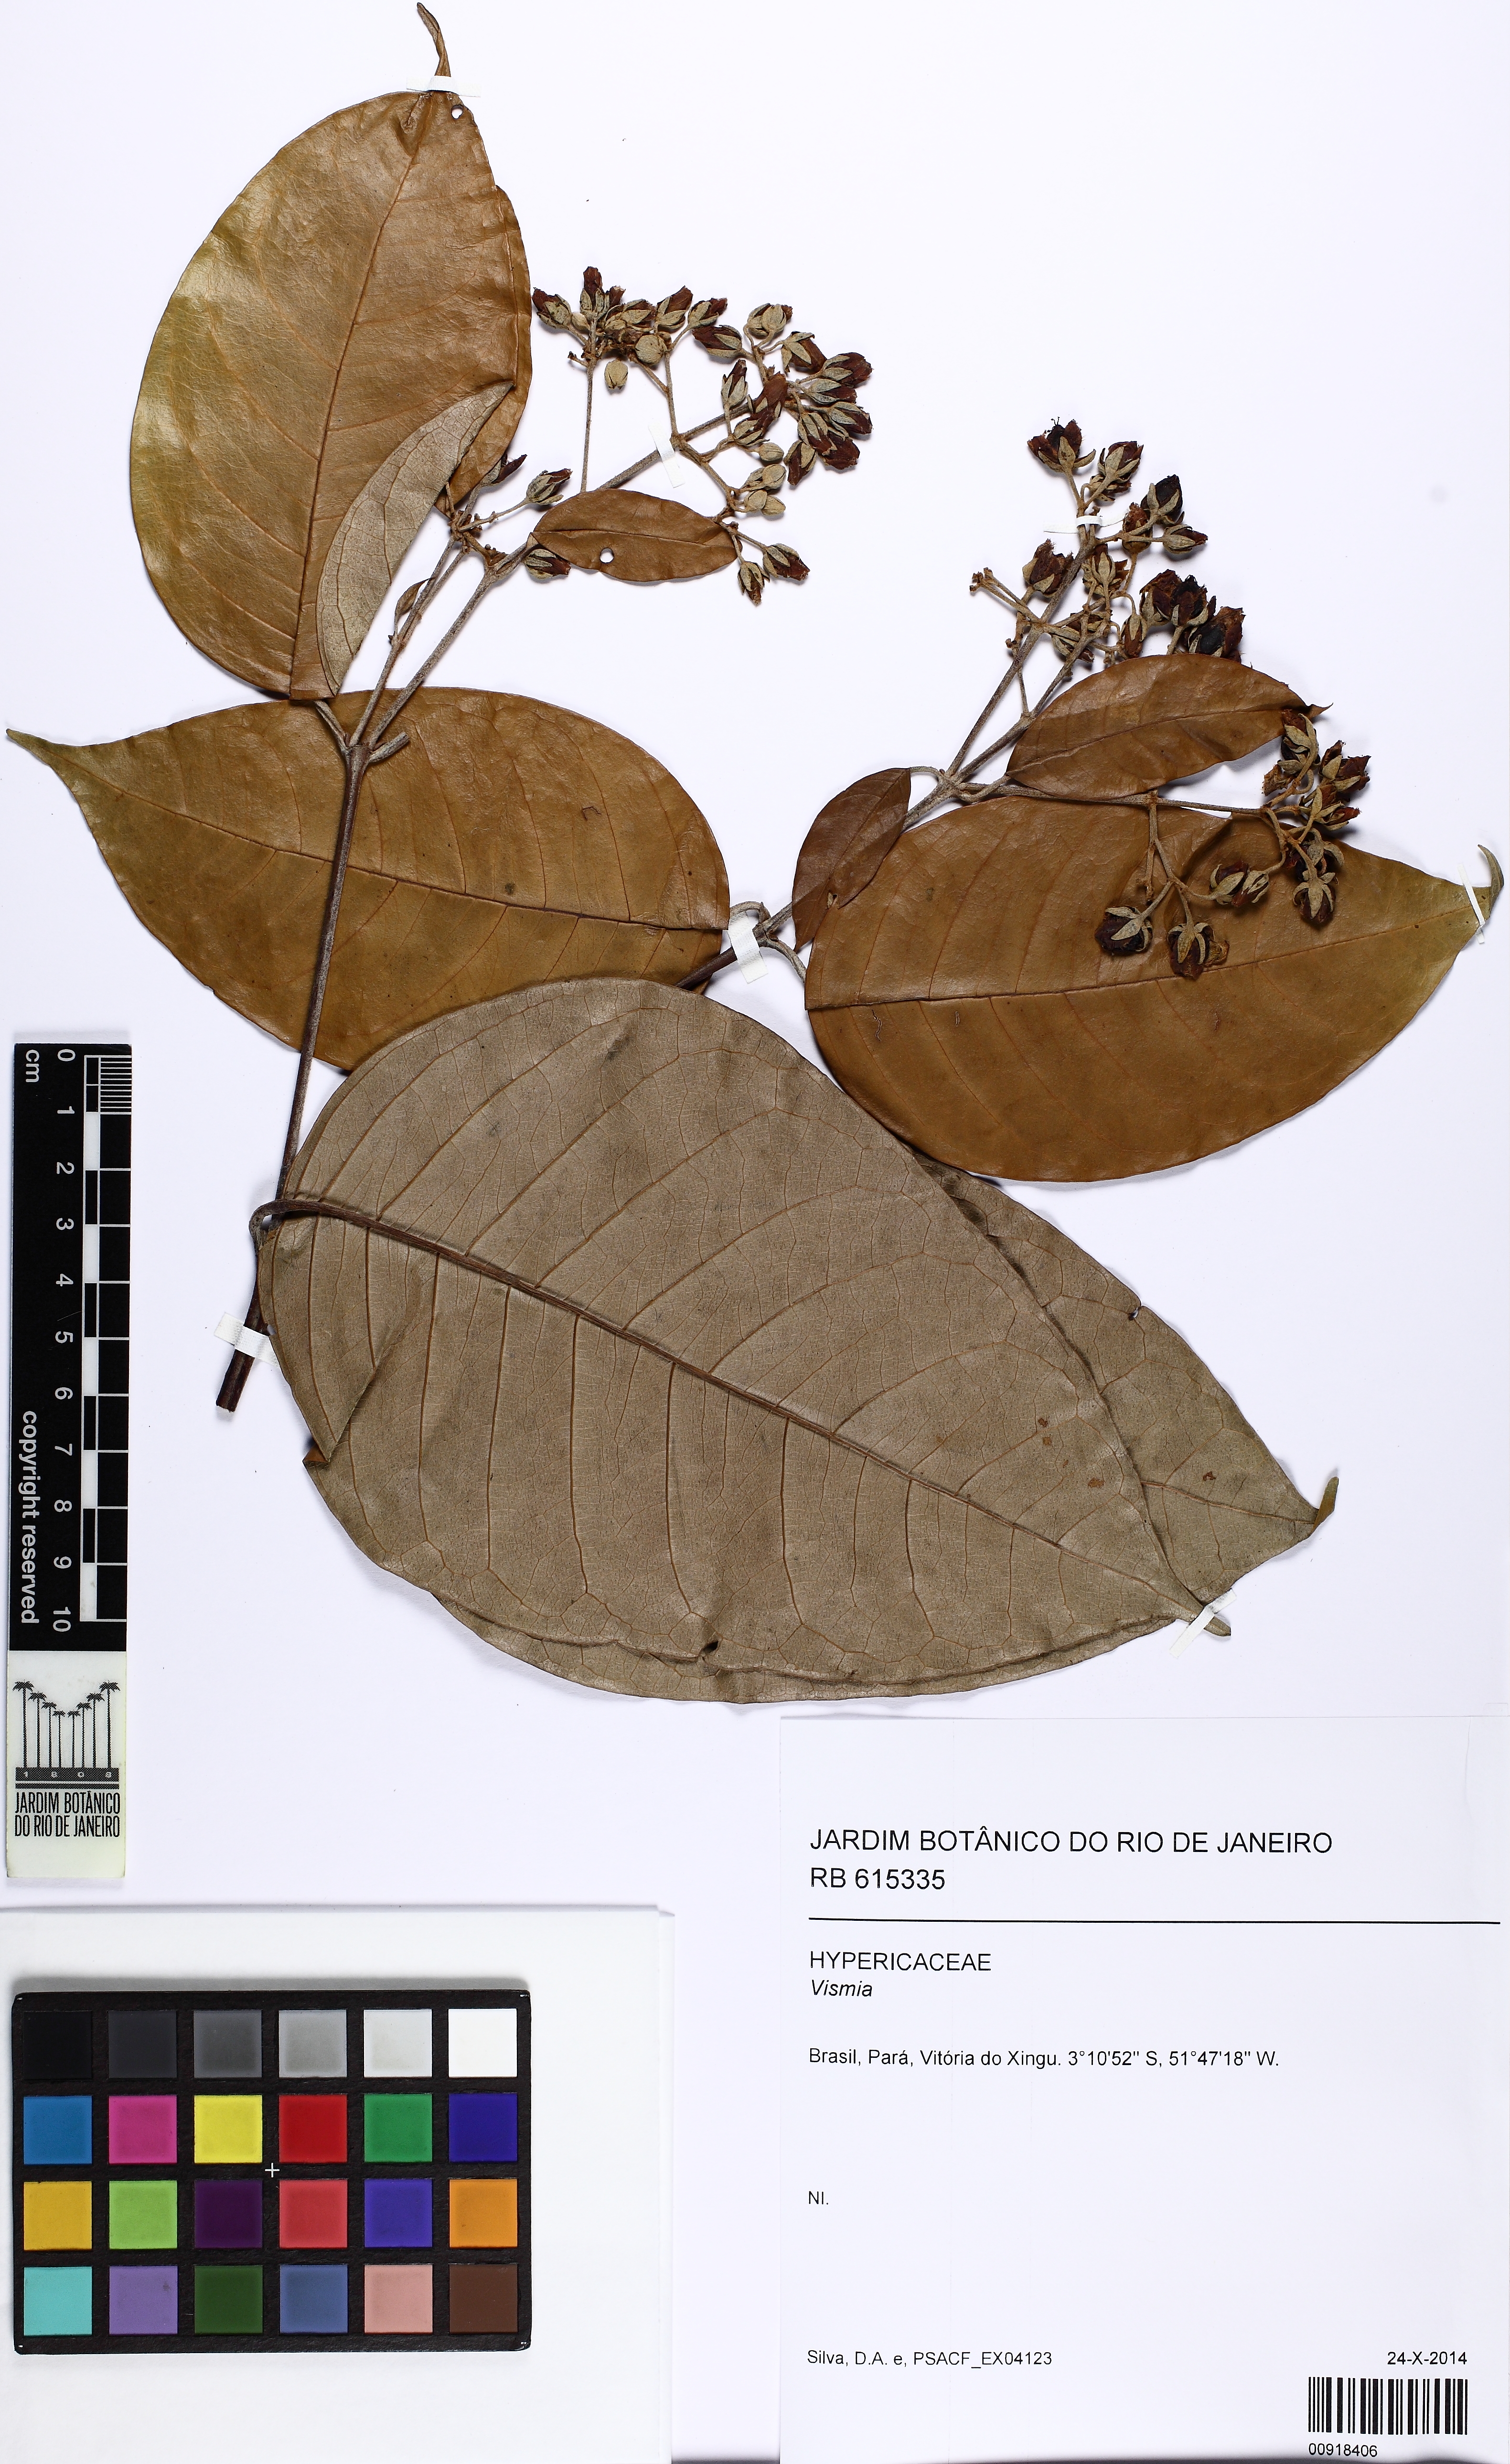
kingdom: Plantae
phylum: Tracheophyta
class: Magnoliopsida
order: Malpighiales
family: Hypericaceae
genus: Vismia
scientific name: Vismia gracilis
